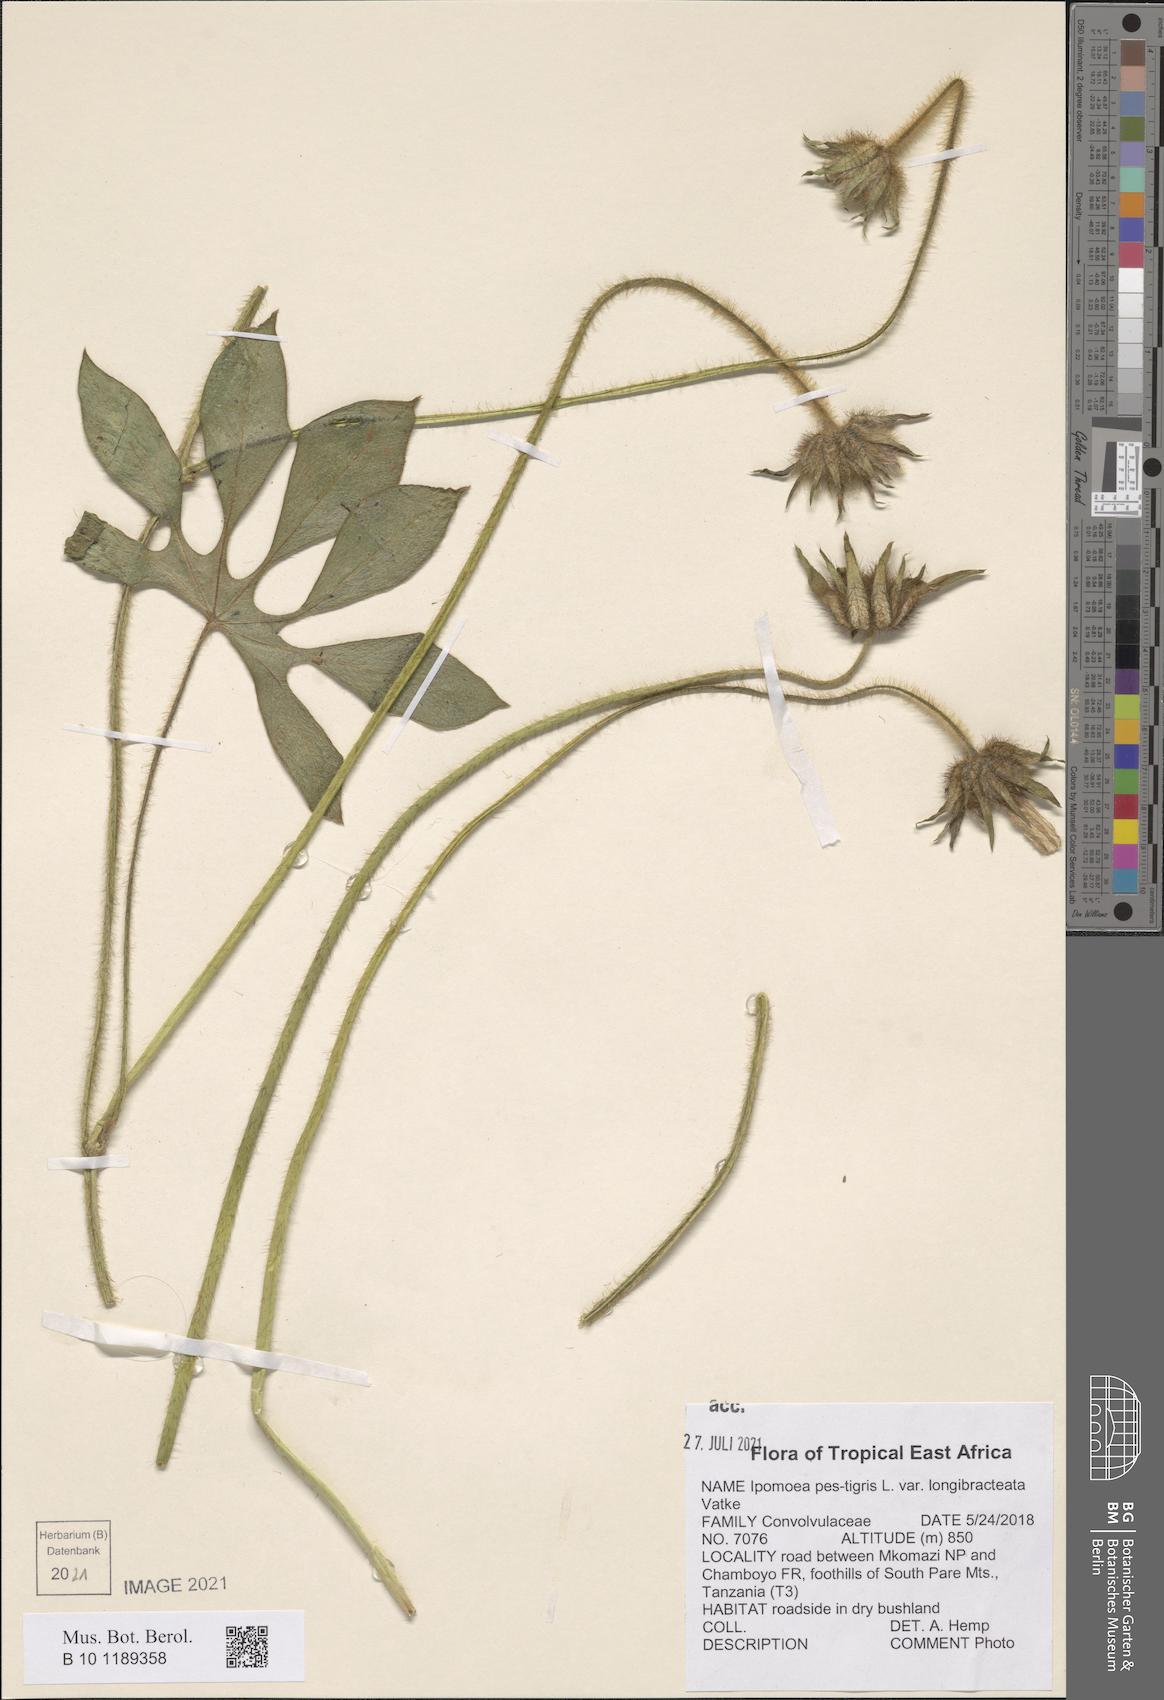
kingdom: Plantae
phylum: Tracheophyta
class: Magnoliopsida
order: Solanales
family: Convolvulaceae
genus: Ipomoea
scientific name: Ipomoea pes-tigridis
